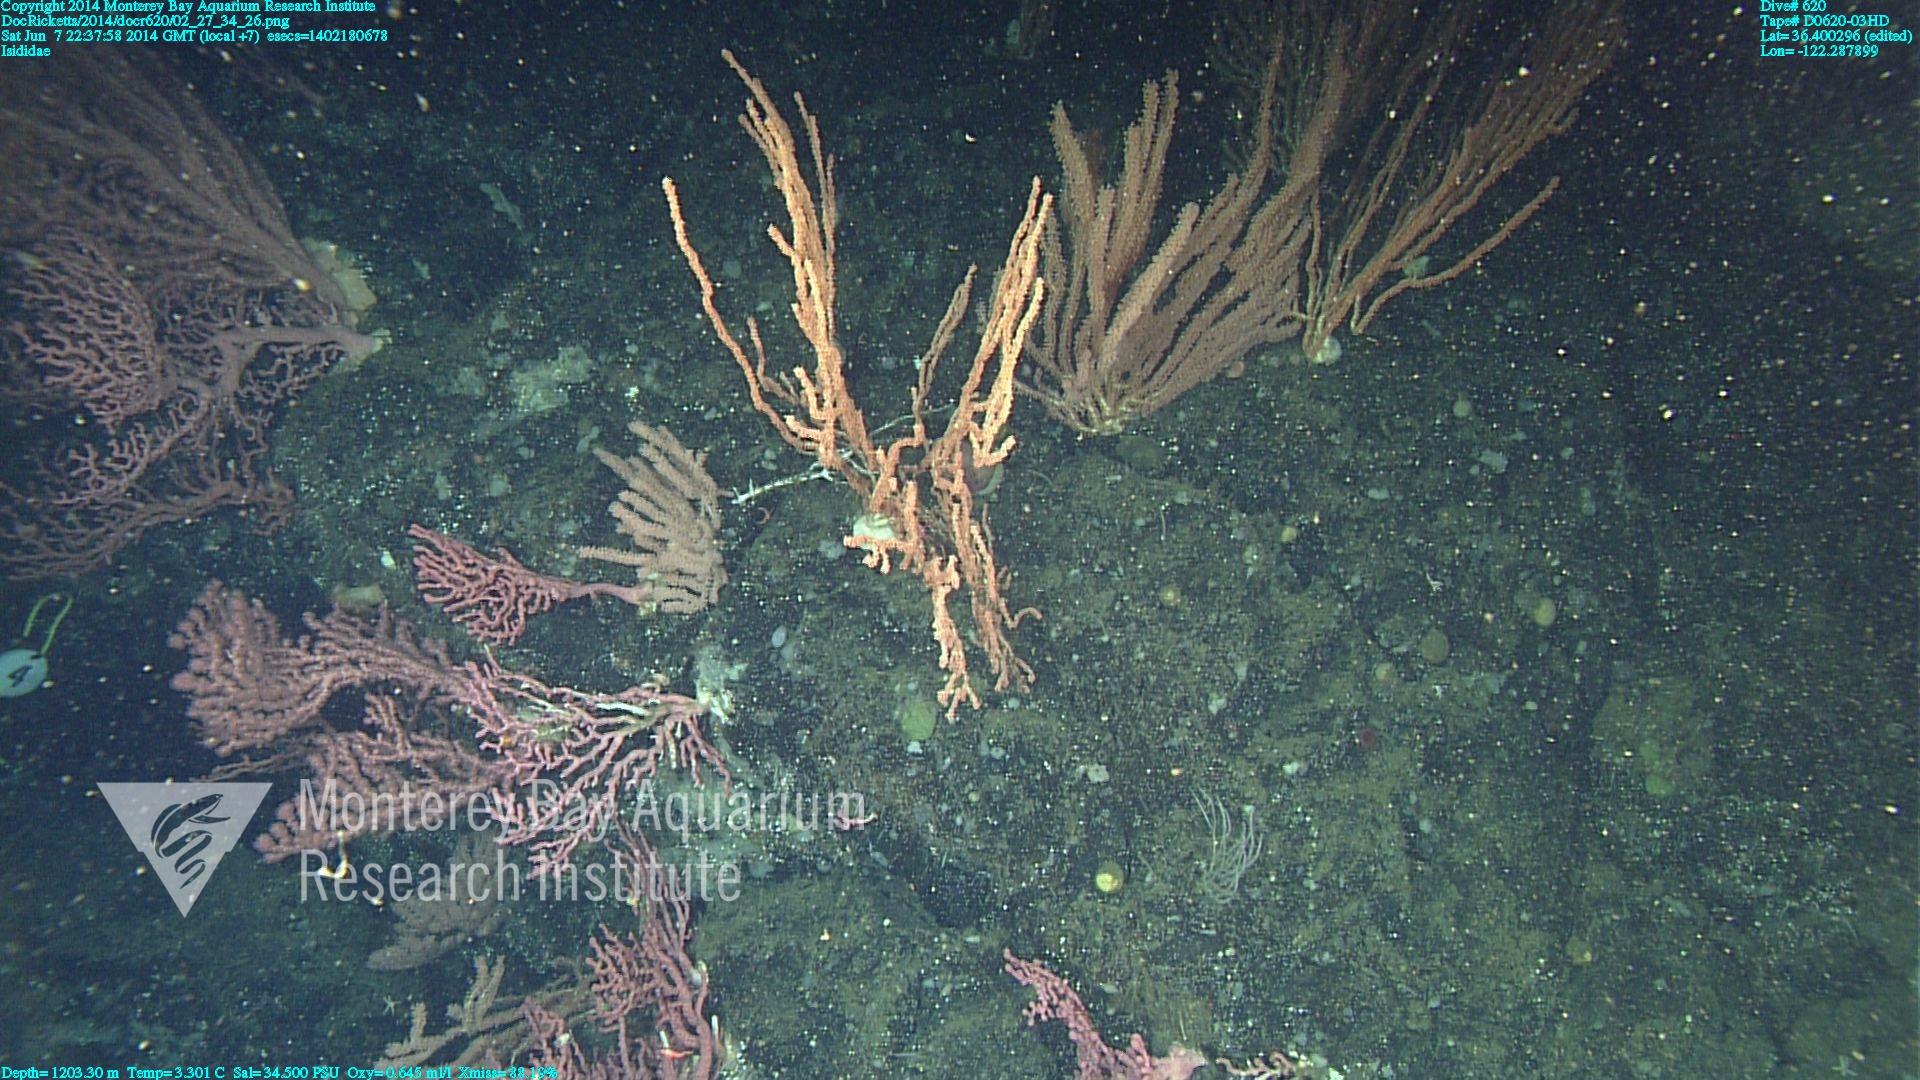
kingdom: Animalia
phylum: Cnidaria
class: Anthozoa
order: Scleralcyonacea
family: Keratoisididae
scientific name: Keratoisididae
